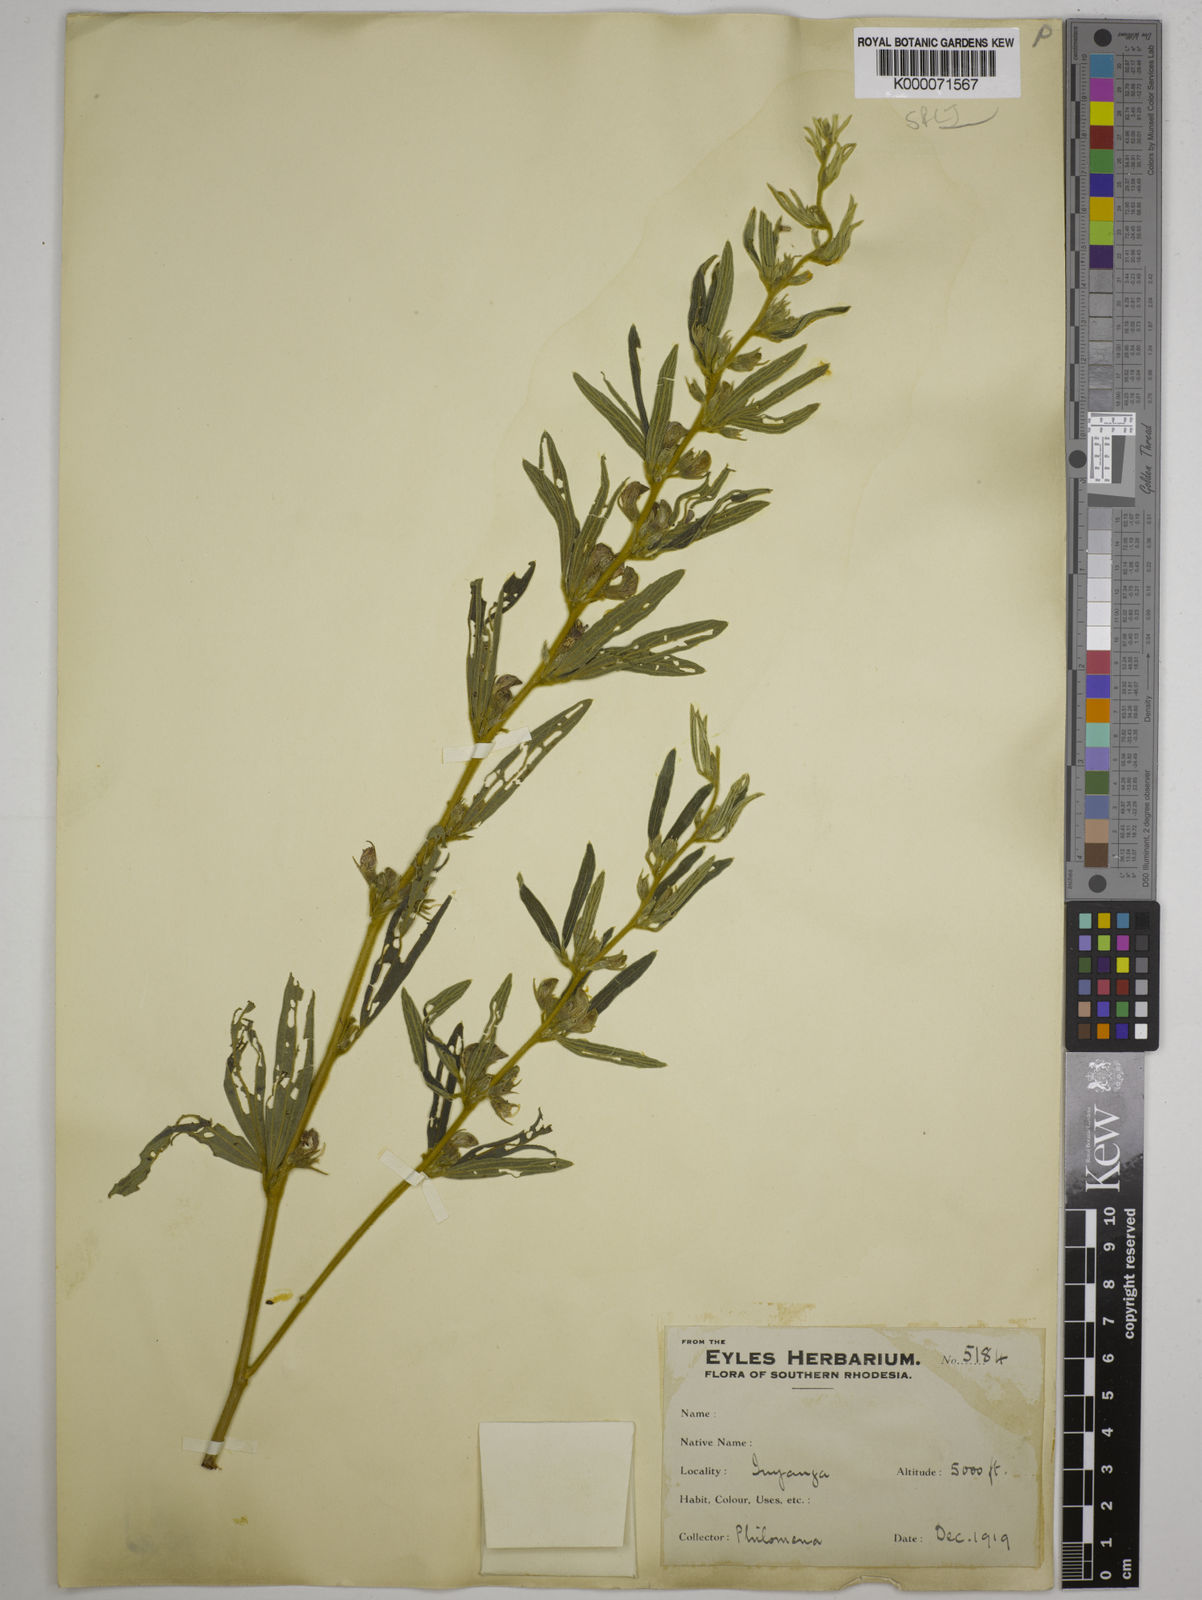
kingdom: Plantae
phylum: Tracheophyta
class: Magnoliopsida
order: Fabales
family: Fabaceae
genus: Dolichos
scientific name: Dolichos trinervatus
